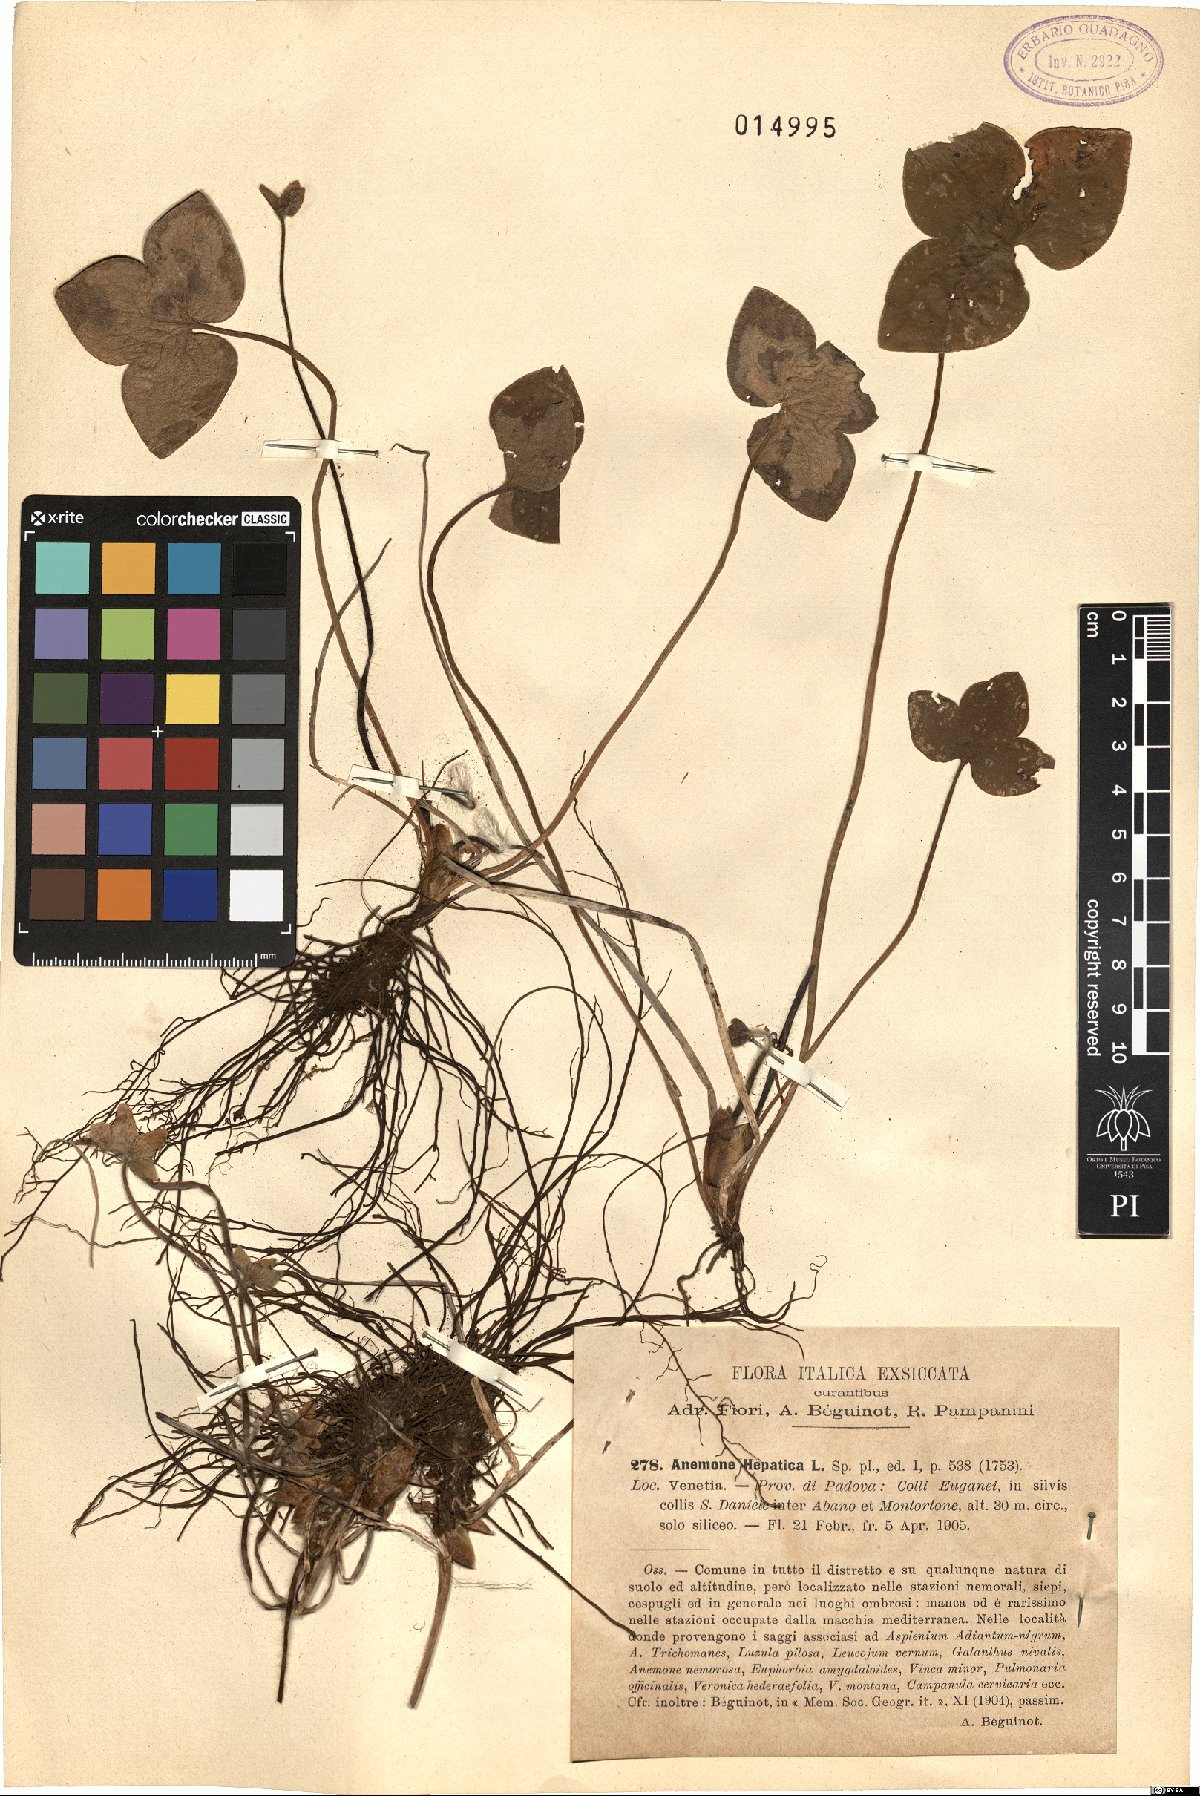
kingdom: Plantae
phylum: Tracheophyta
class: Magnoliopsida
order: Ranunculales
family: Ranunculaceae
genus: Hepatica
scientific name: Hepatica nobilis
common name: Liverleaf
